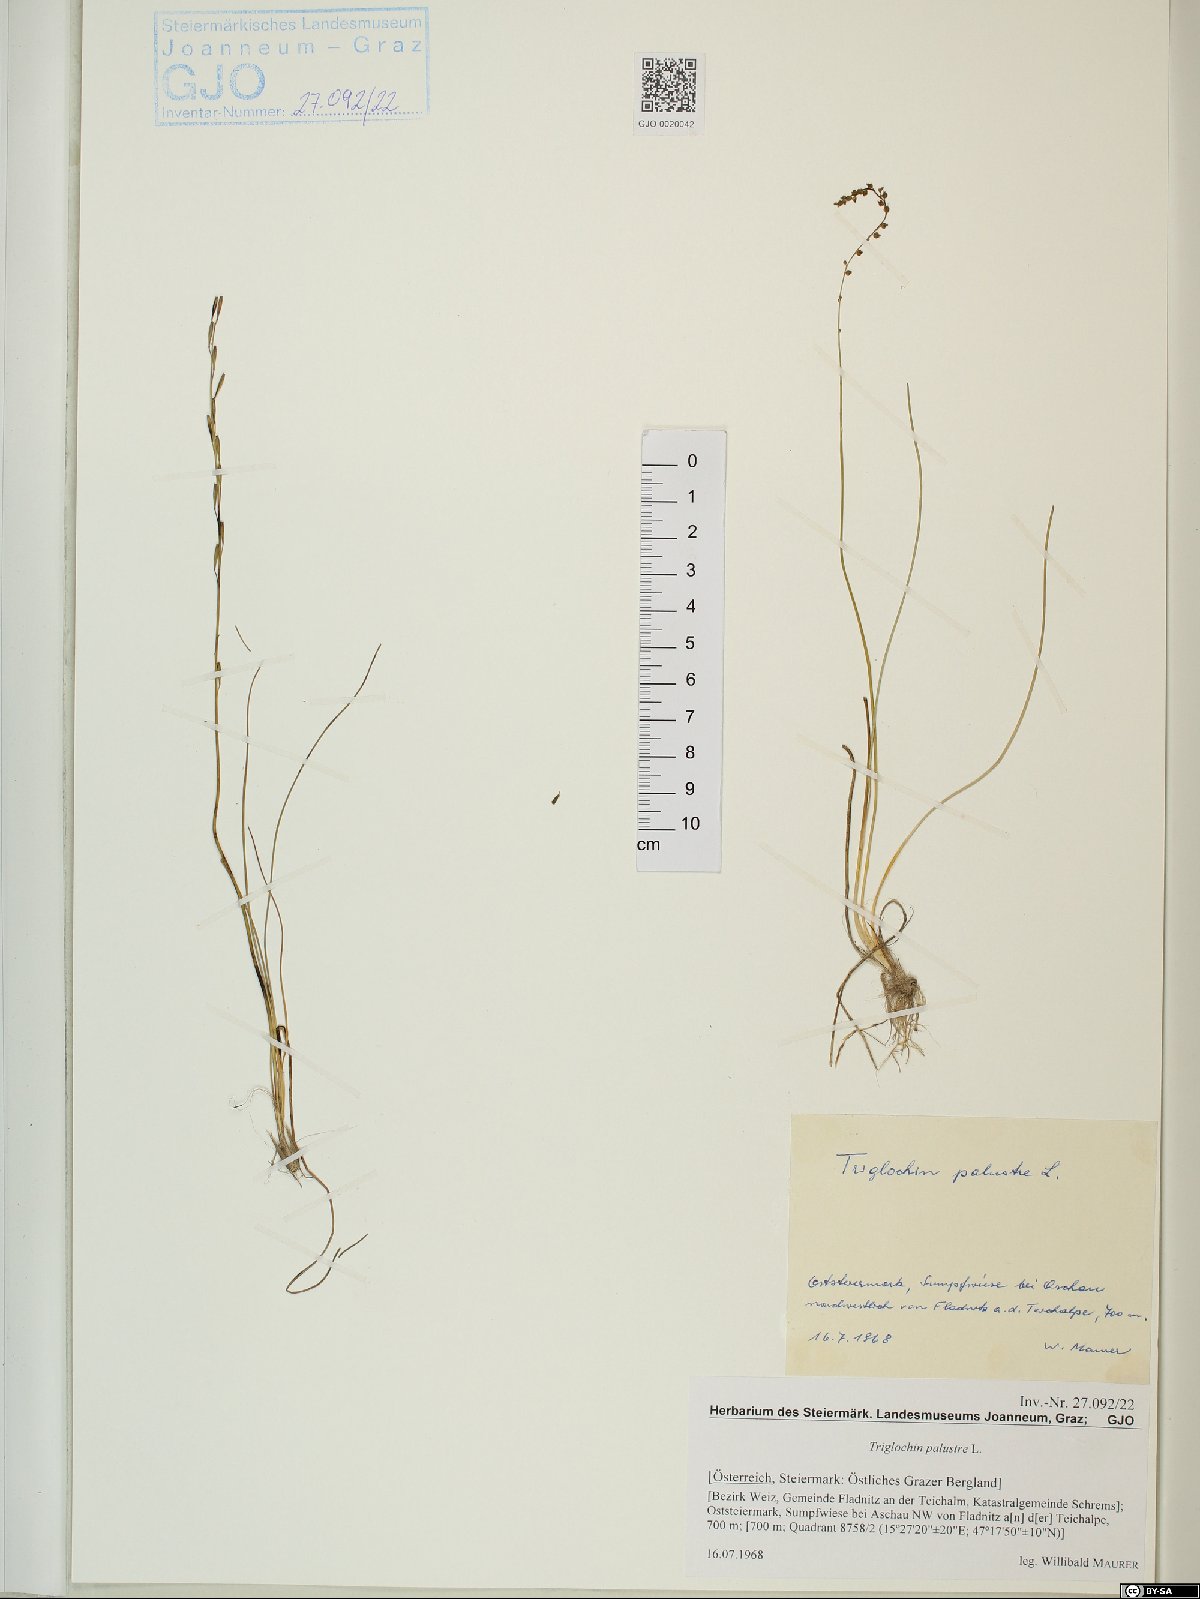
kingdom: Plantae
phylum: Tracheophyta
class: Liliopsida
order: Alismatales
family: Juncaginaceae
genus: Triglochin
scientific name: Triglochin palustris
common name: Marsh arrowgrass
